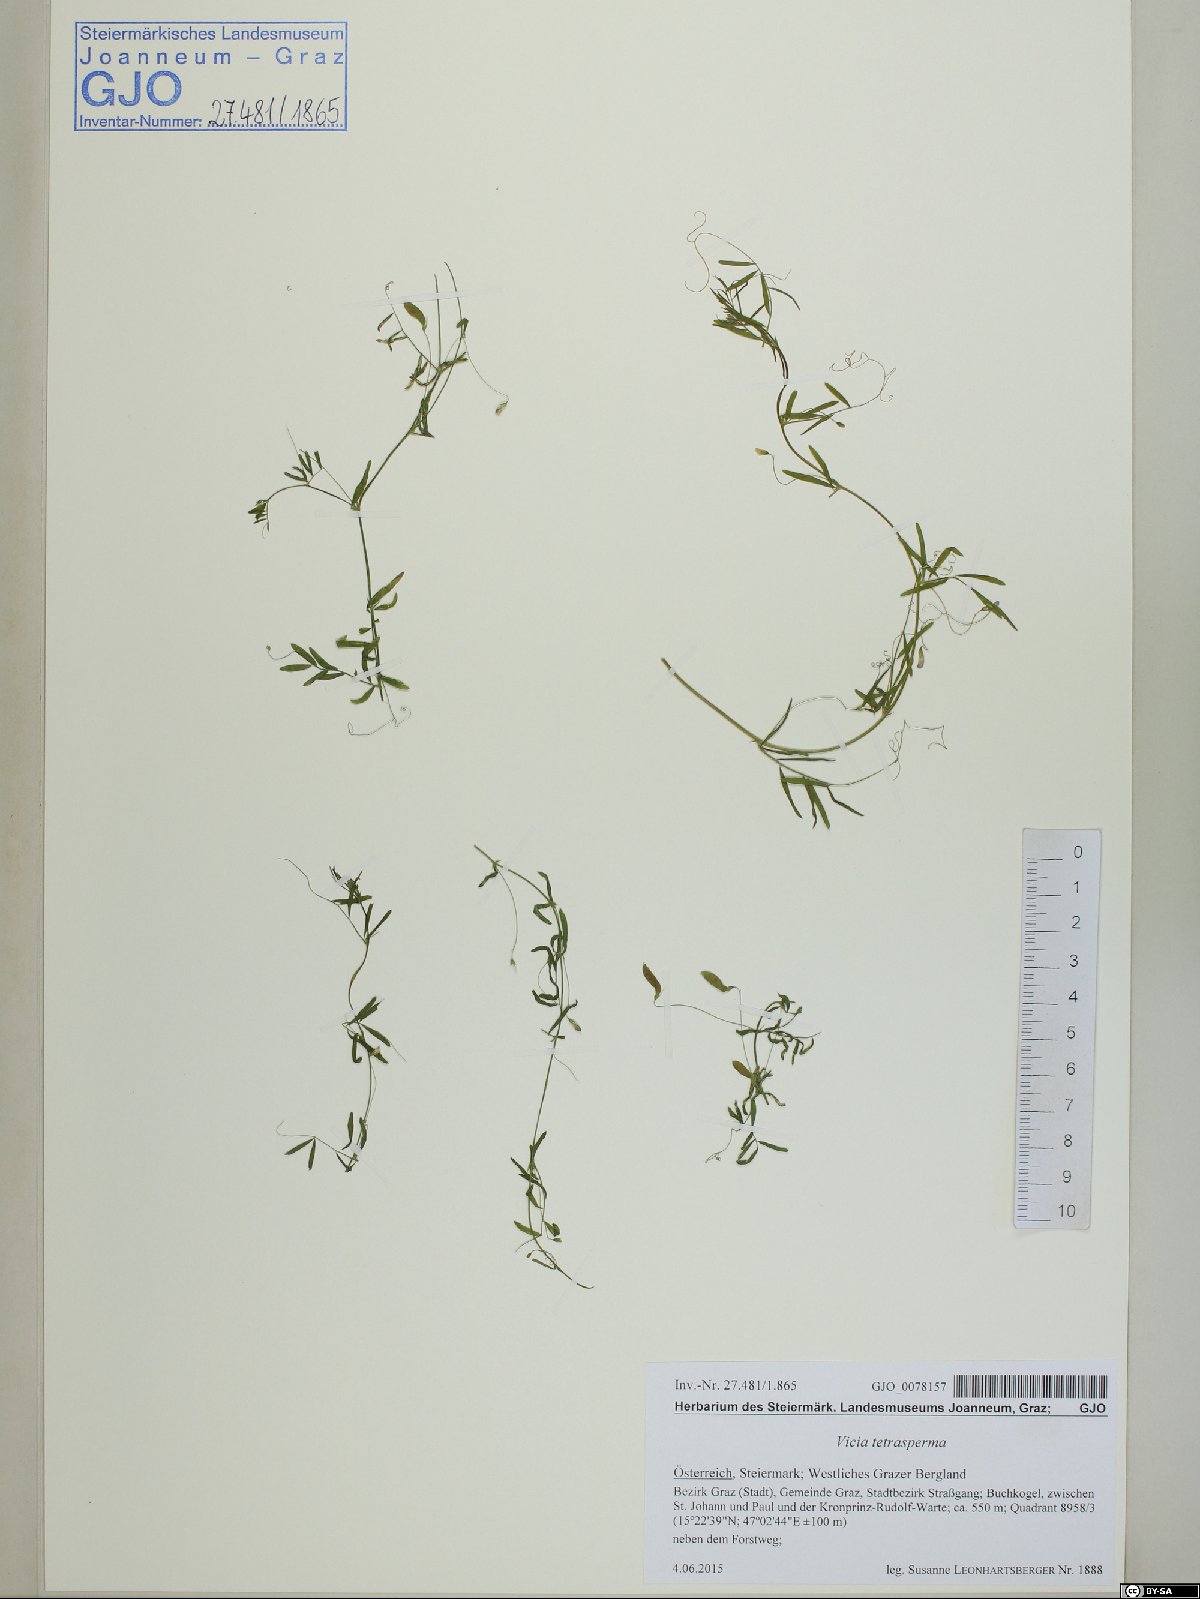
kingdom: Plantae
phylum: Tracheophyta
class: Magnoliopsida
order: Fabales
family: Fabaceae
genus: Vicia
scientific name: Vicia tetrasperma
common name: Smooth tare
